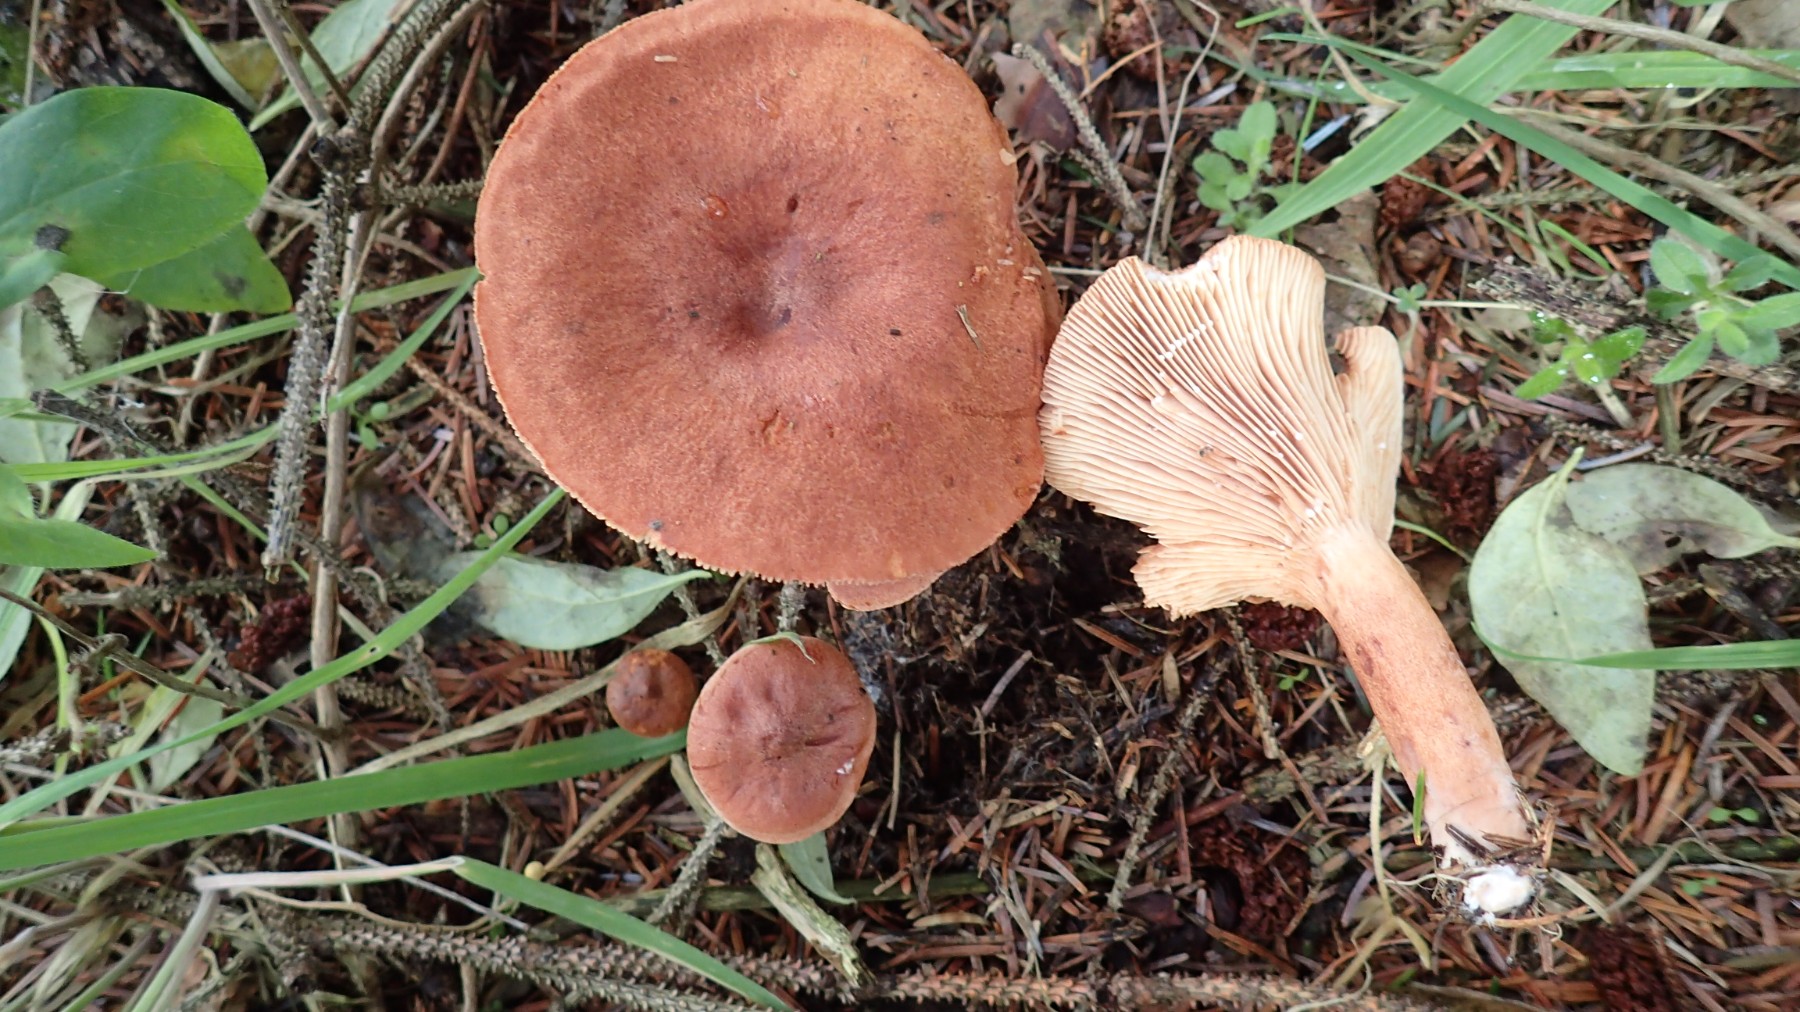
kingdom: Fungi
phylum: Basidiomycota
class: Agaricomycetes
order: Russulales
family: Russulaceae
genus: Lactarius
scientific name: Lactarius rufus
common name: rødbrun mælkehat
